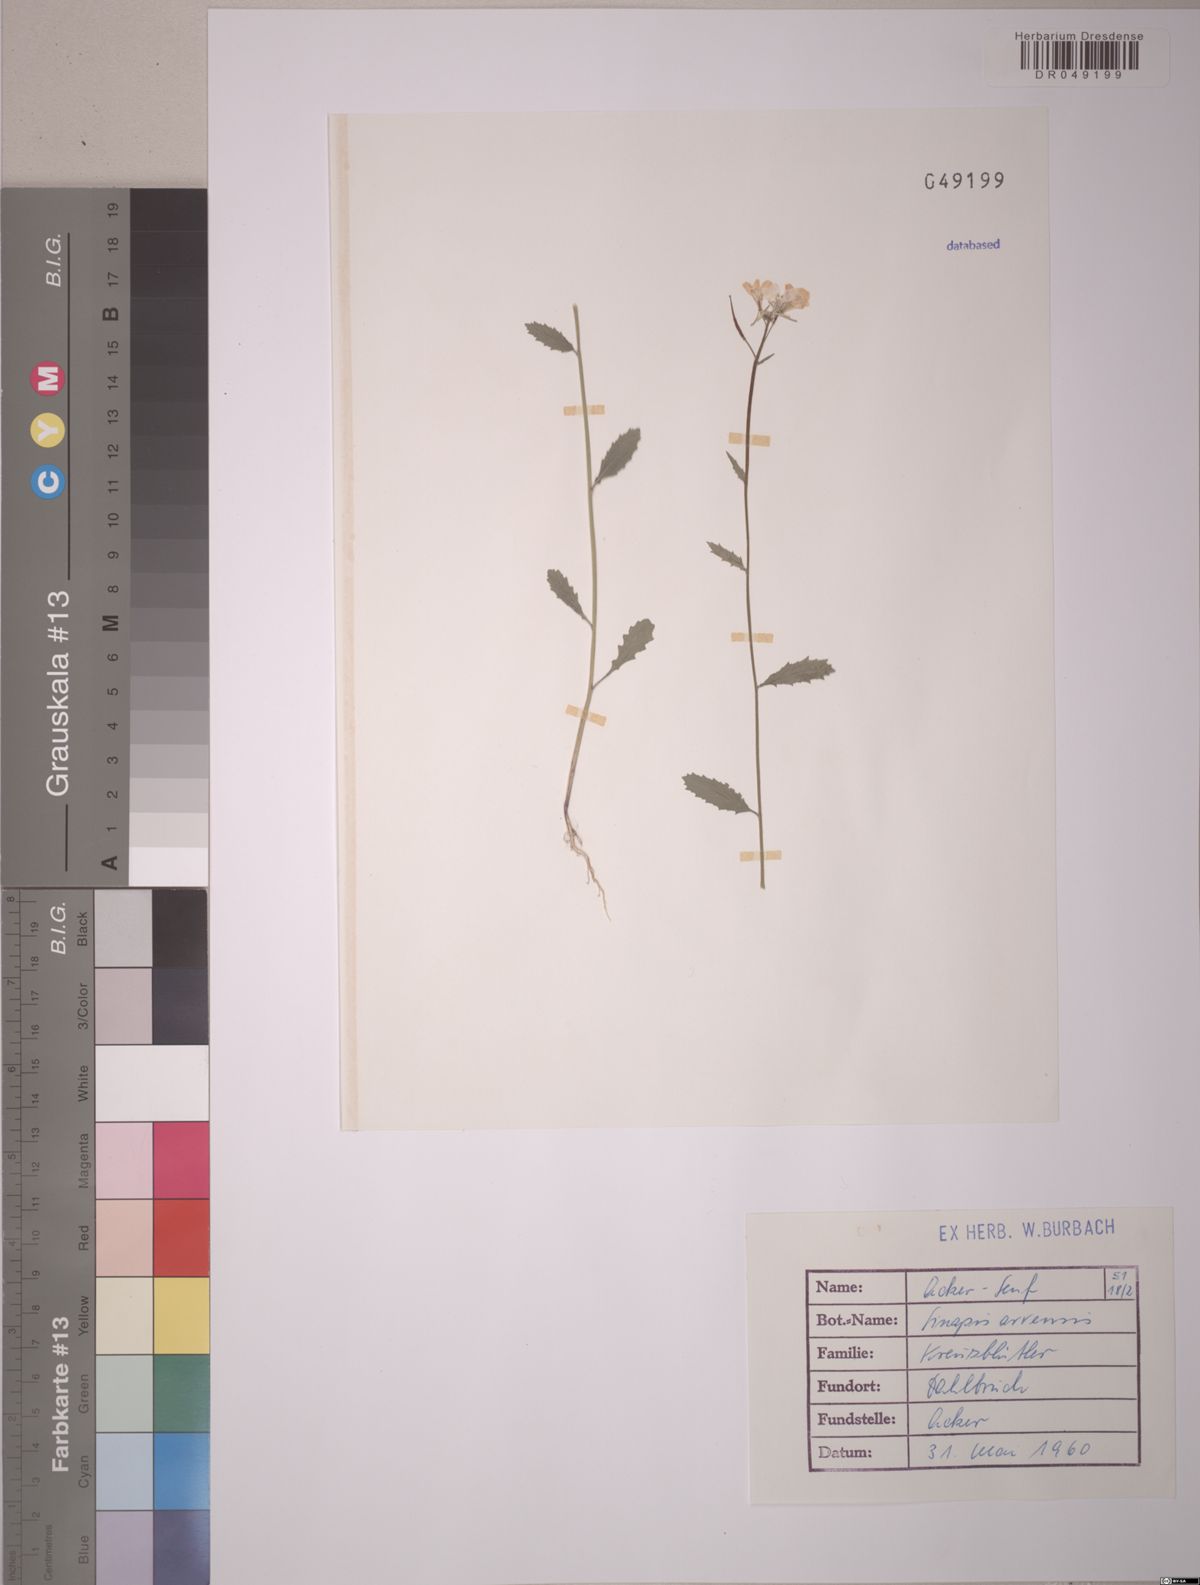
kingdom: Plantae
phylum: Tracheophyta
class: Magnoliopsida
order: Brassicales
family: Brassicaceae
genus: Sinapis
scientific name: Sinapis arvensis
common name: Charlock
